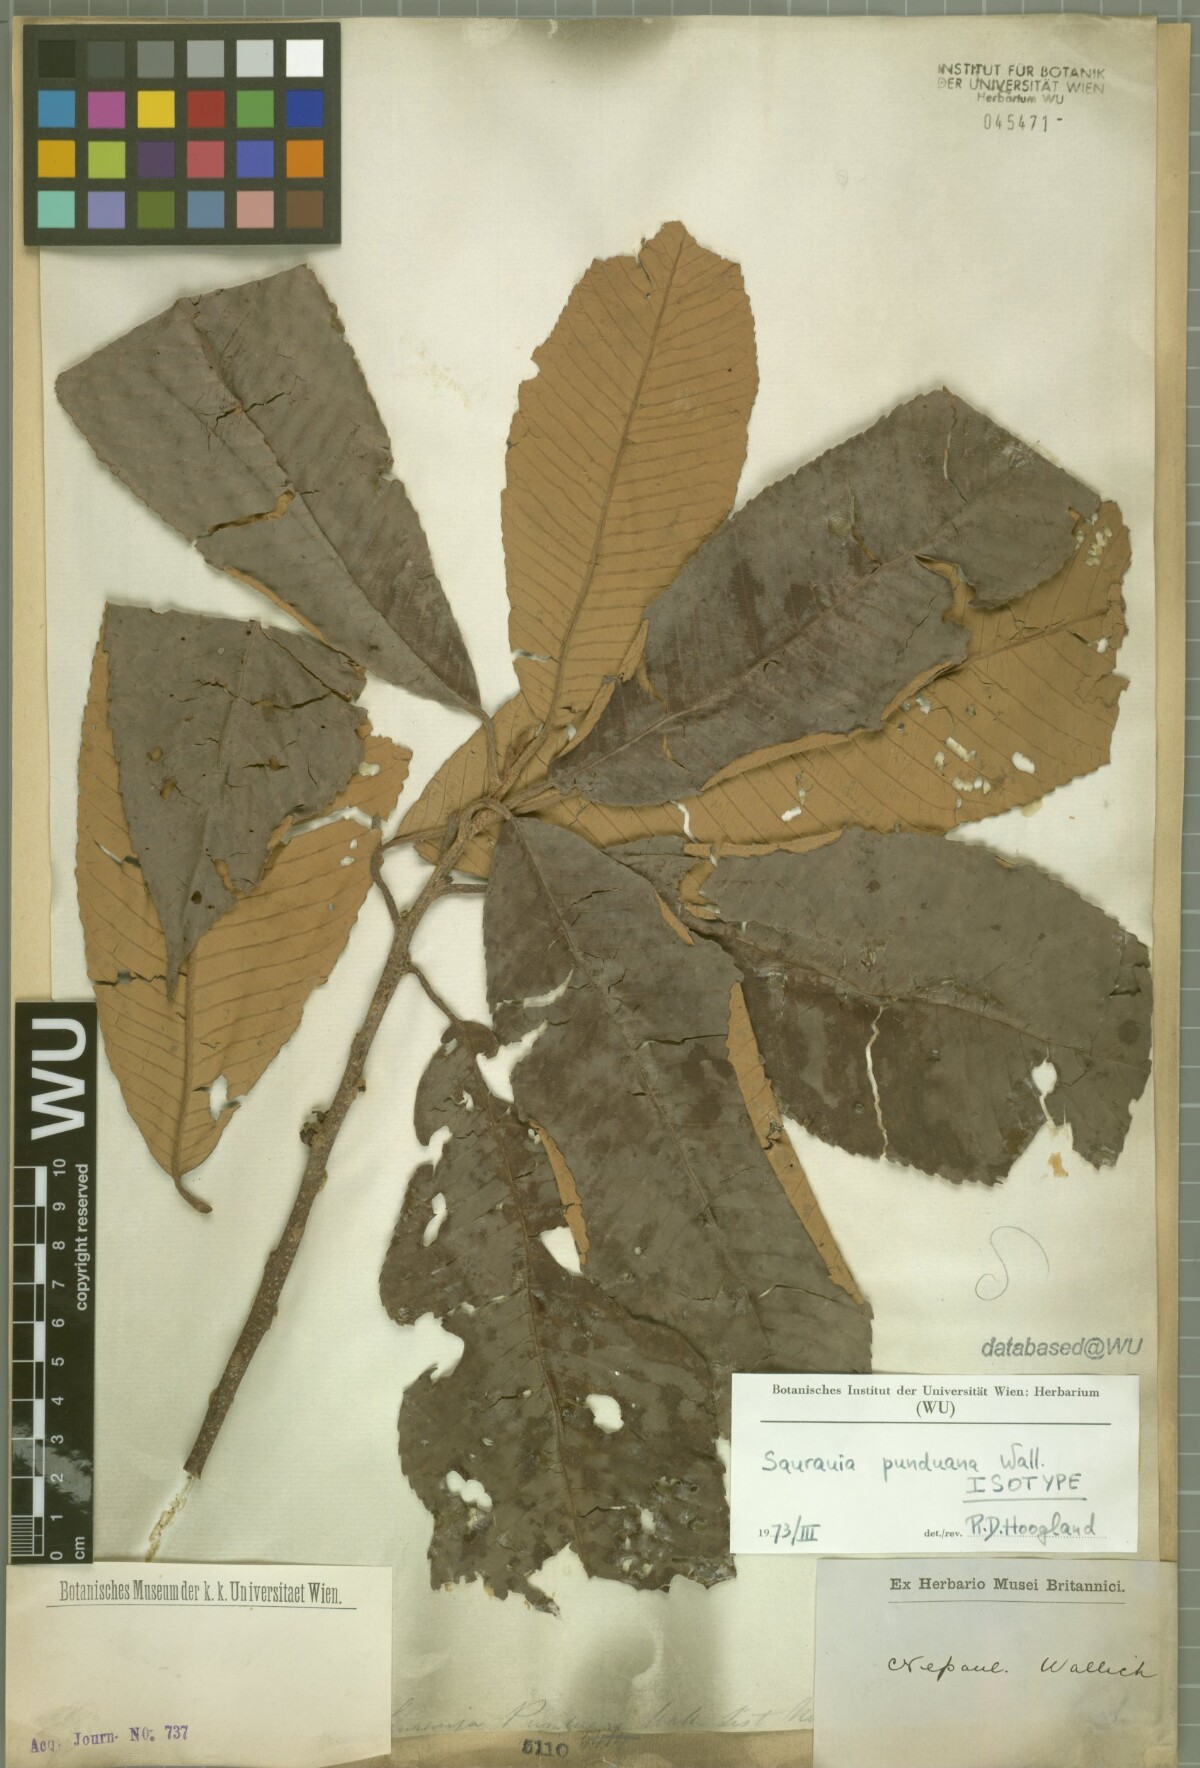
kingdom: Plantae
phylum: Tracheophyta
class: Magnoliopsida
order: Ericales
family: Actinidiaceae
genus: Saurauia
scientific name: Saurauia punduana
